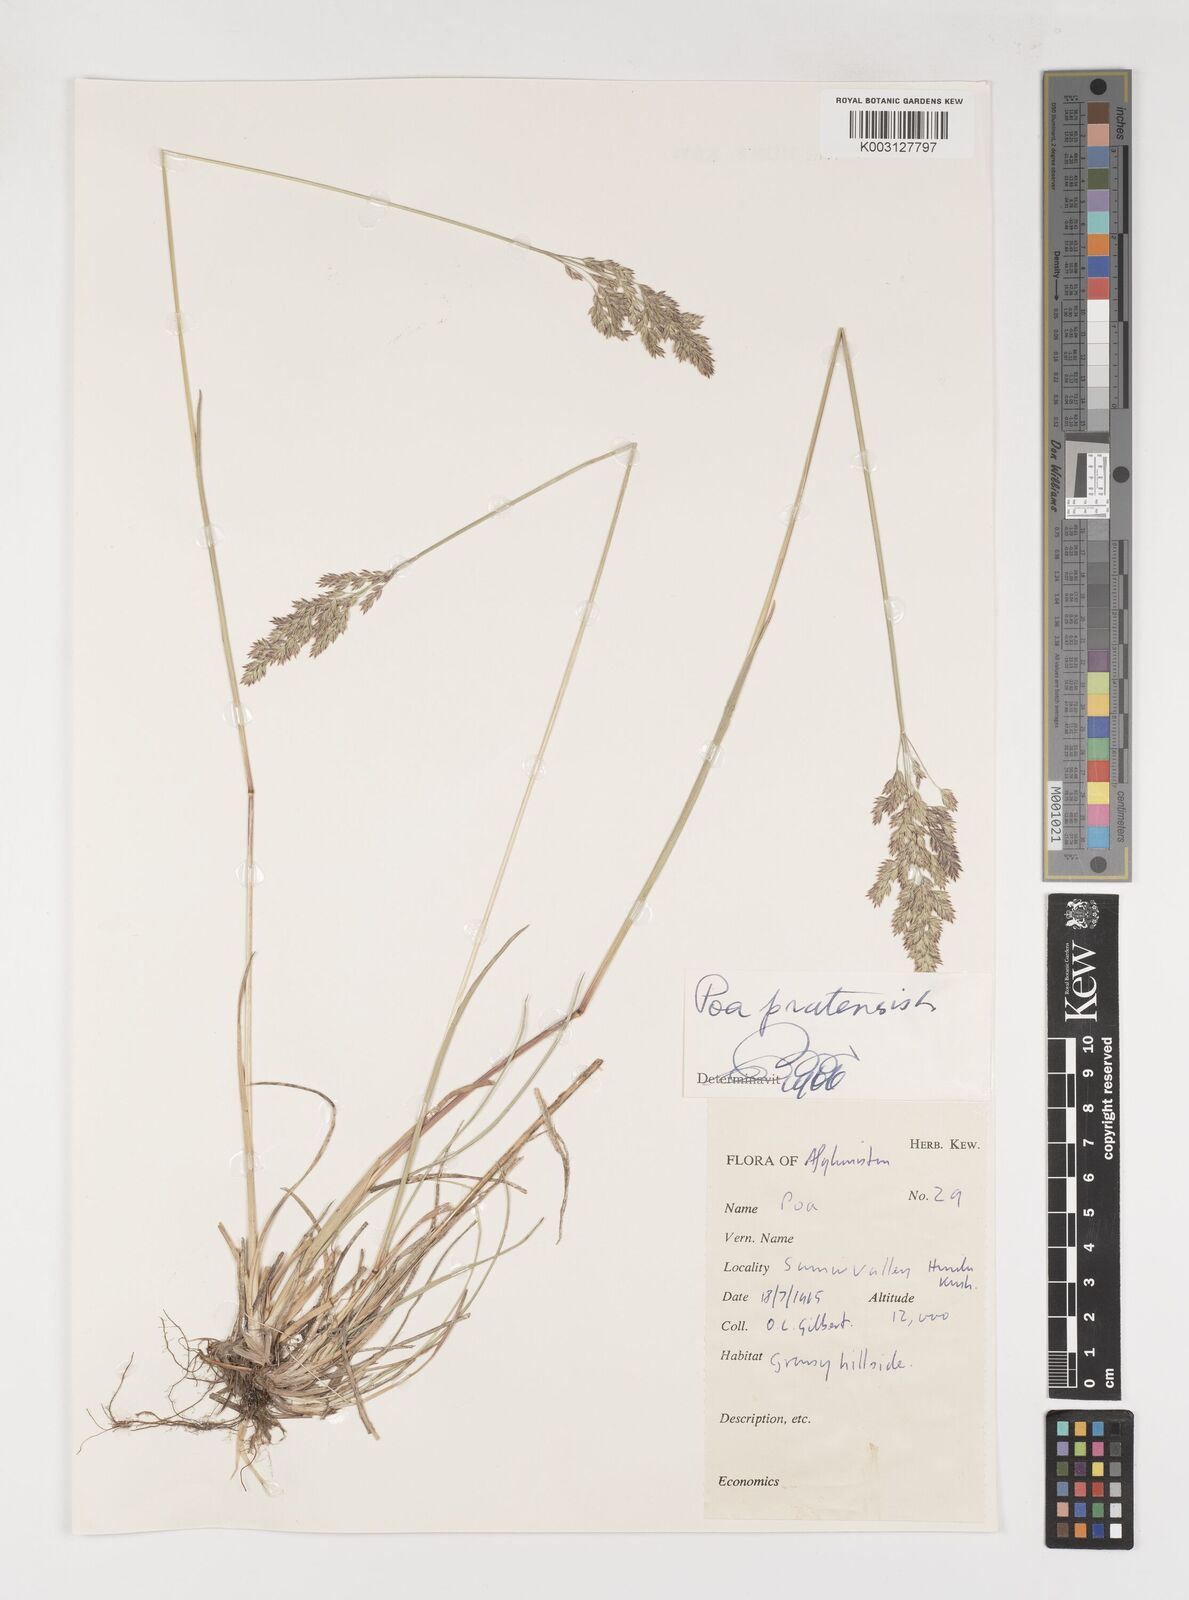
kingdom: Plantae
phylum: Tracheophyta
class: Liliopsida
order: Poales
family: Poaceae
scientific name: Poaceae
